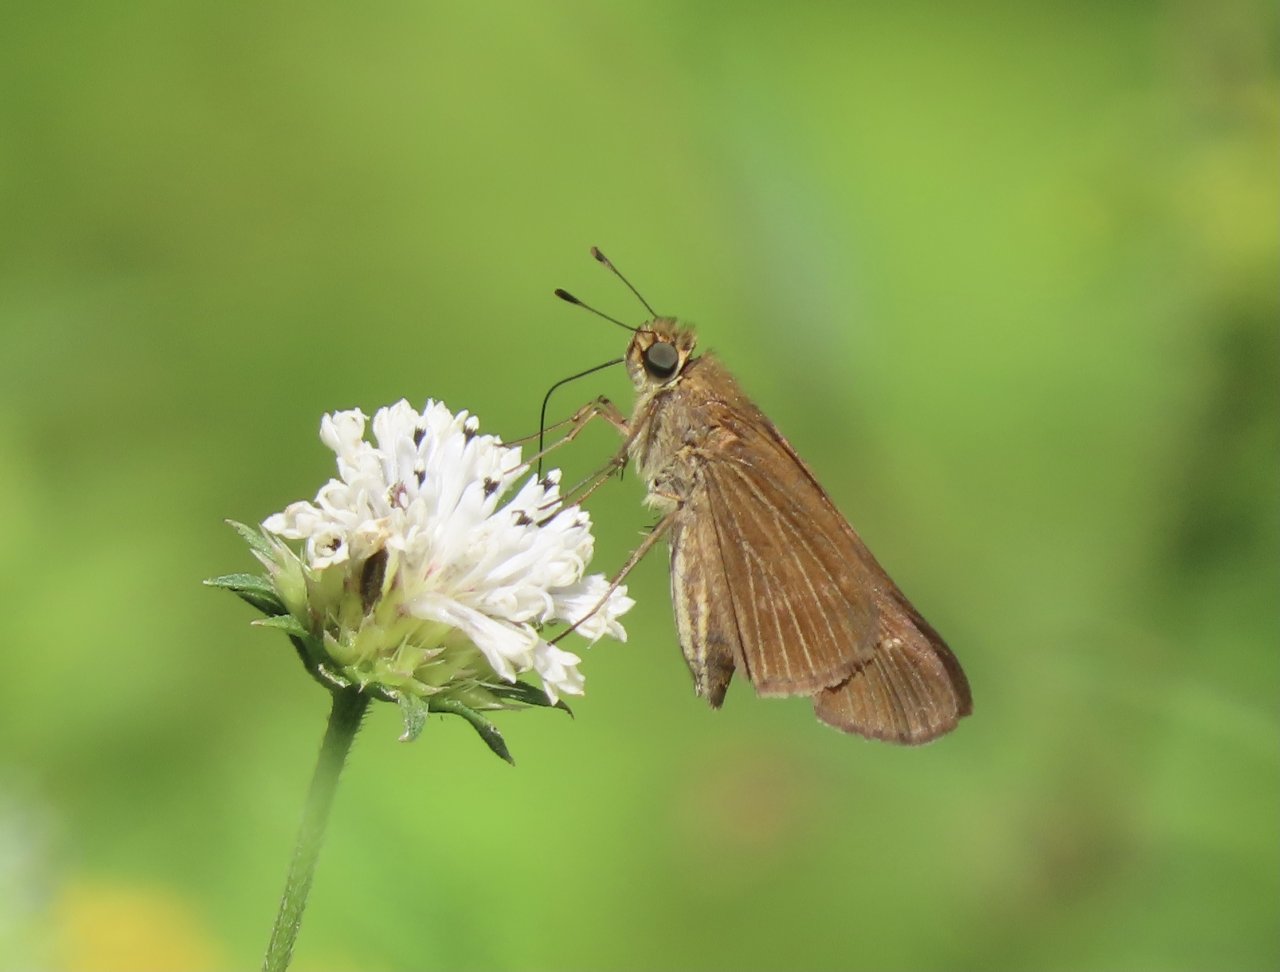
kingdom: Animalia
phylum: Arthropoda
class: Insecta
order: Lepidoptera
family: Hesperiidae
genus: Panoquina
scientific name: Panoquina ocola
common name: Ocola Skipper
